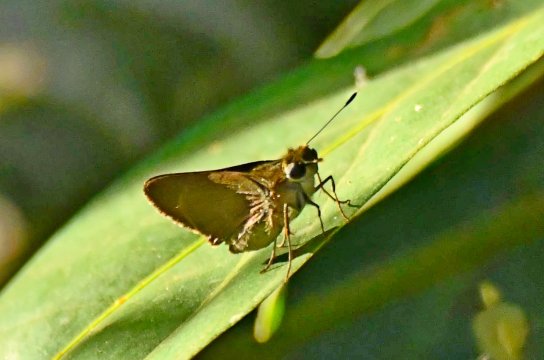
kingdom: Animalia
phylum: Arthropoda
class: Insecta
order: Lepidoptera
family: Hesperiidae
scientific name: Hesperiidae
